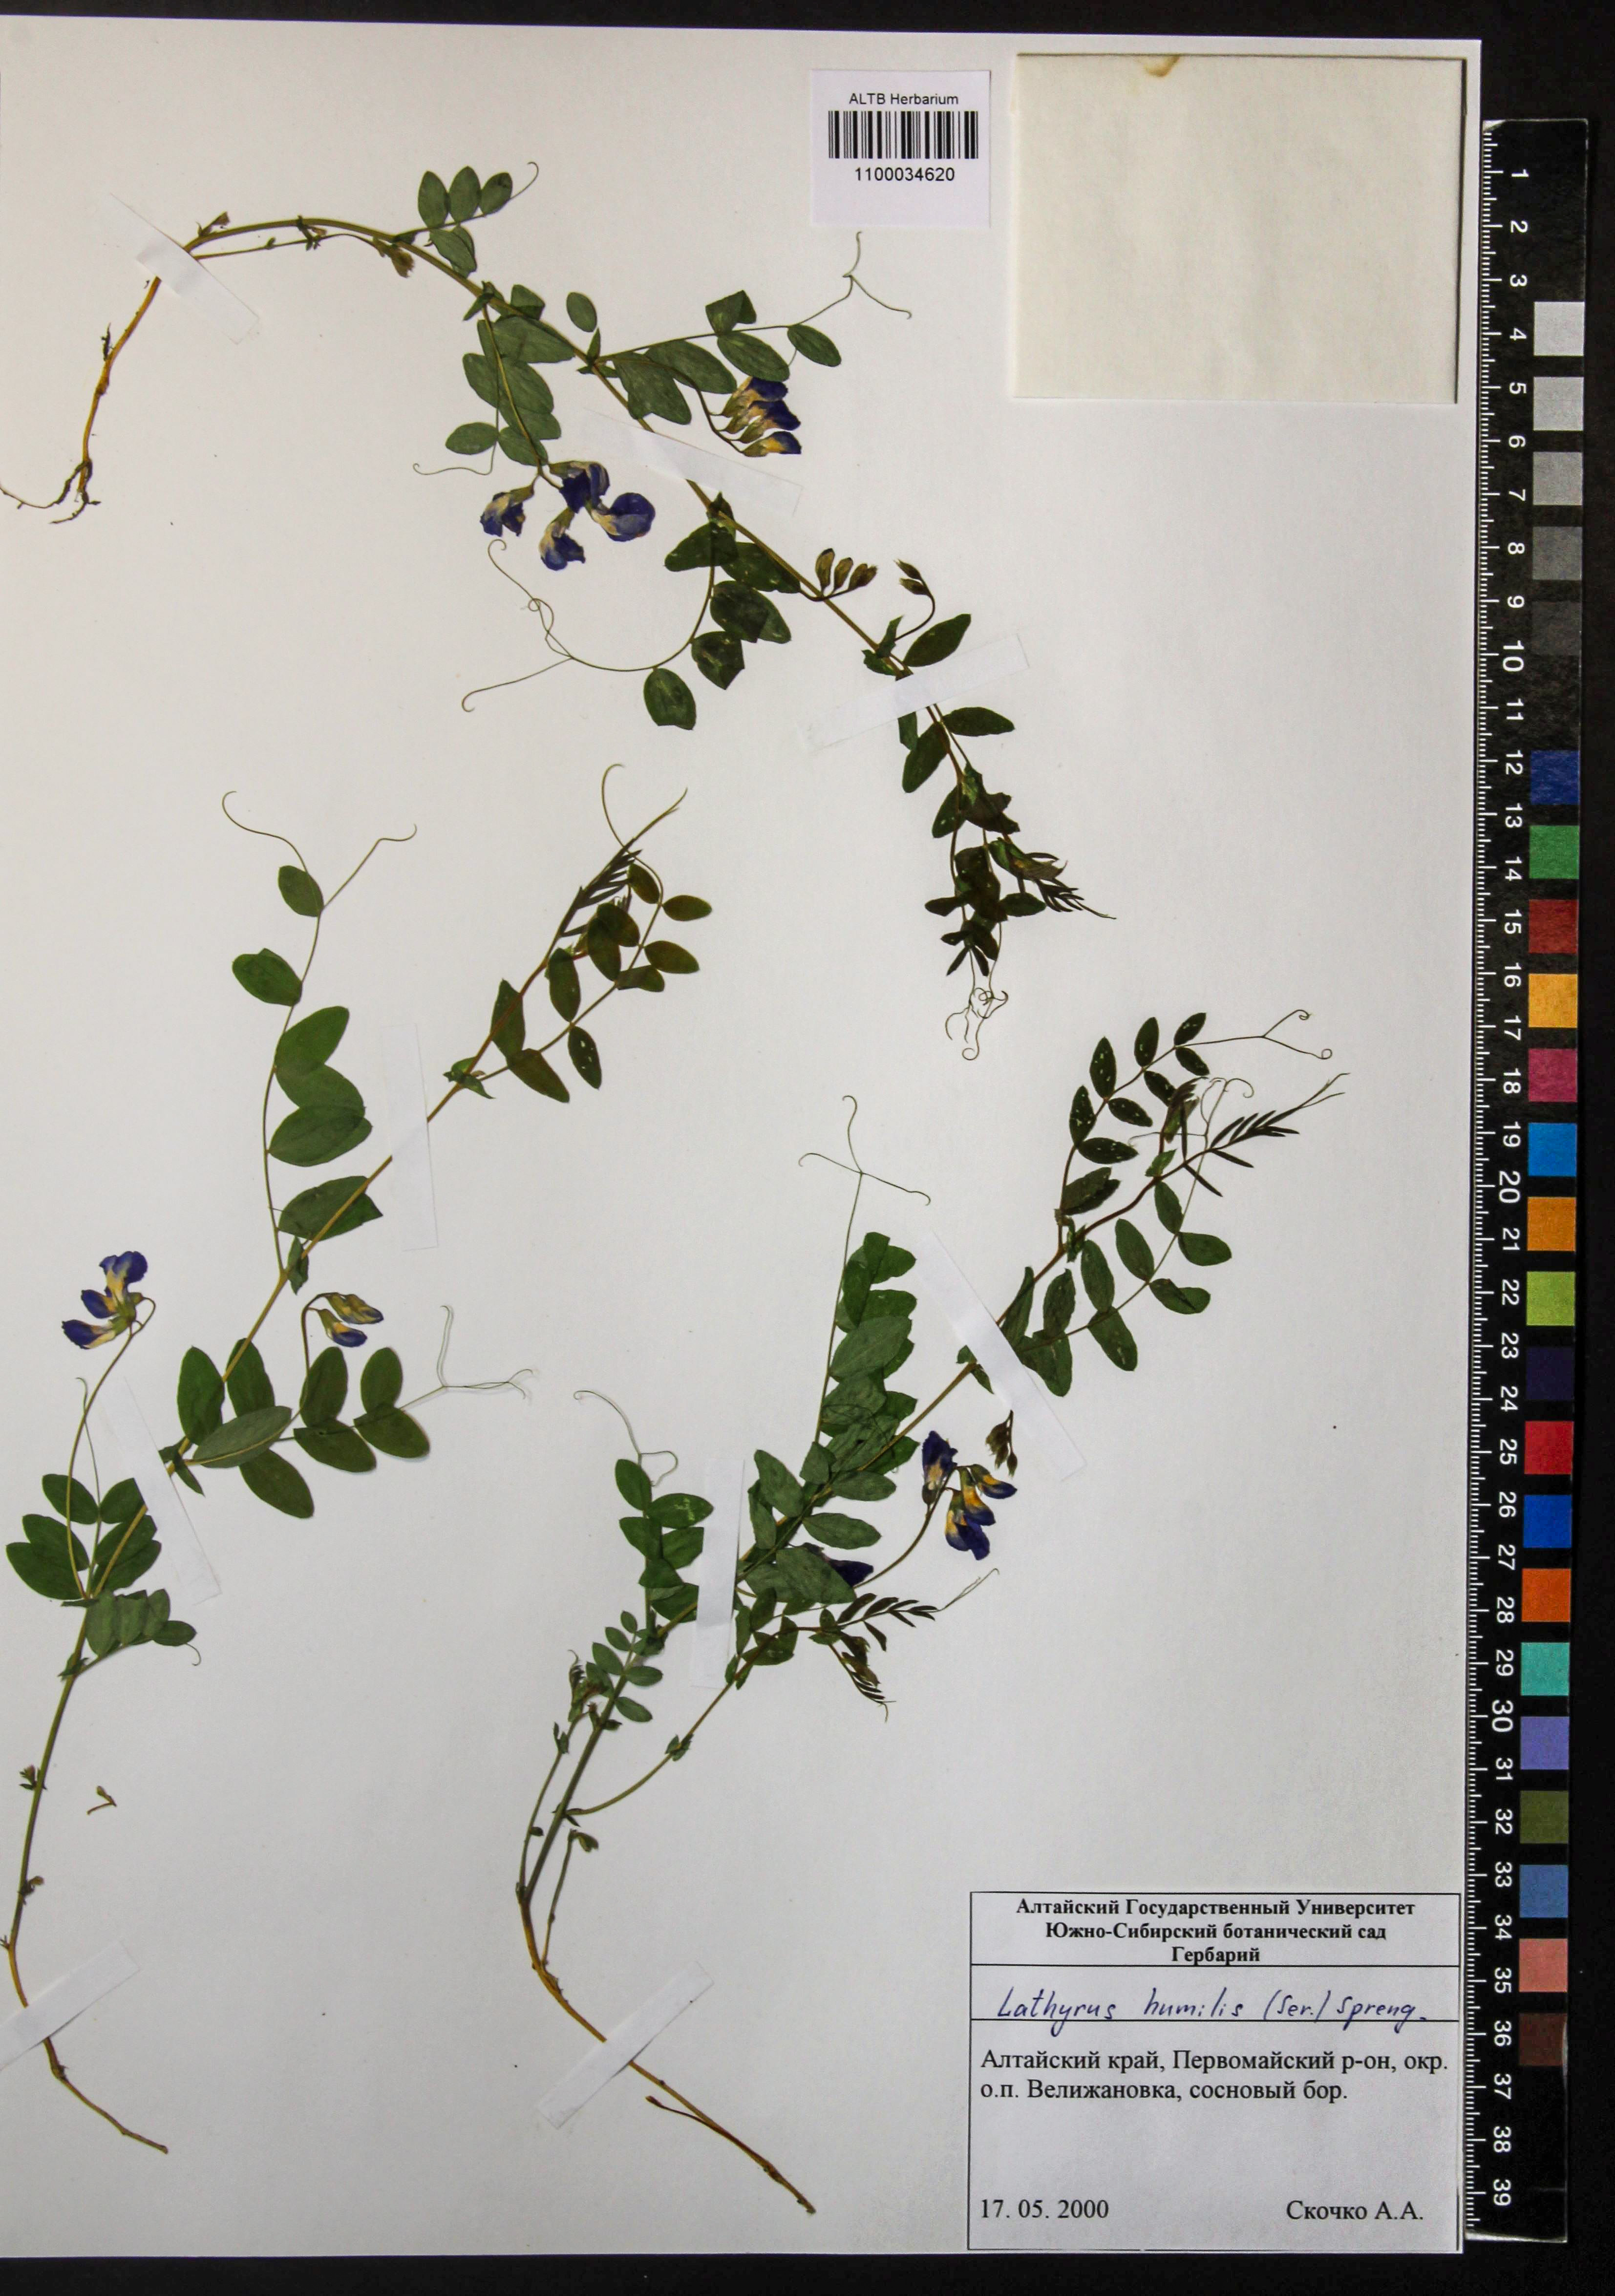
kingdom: Plantae
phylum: Tracheophyta
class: Magnoliopsida
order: Fabales
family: Fabaceae
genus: Lathyrus
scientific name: Lathyrus humilis
